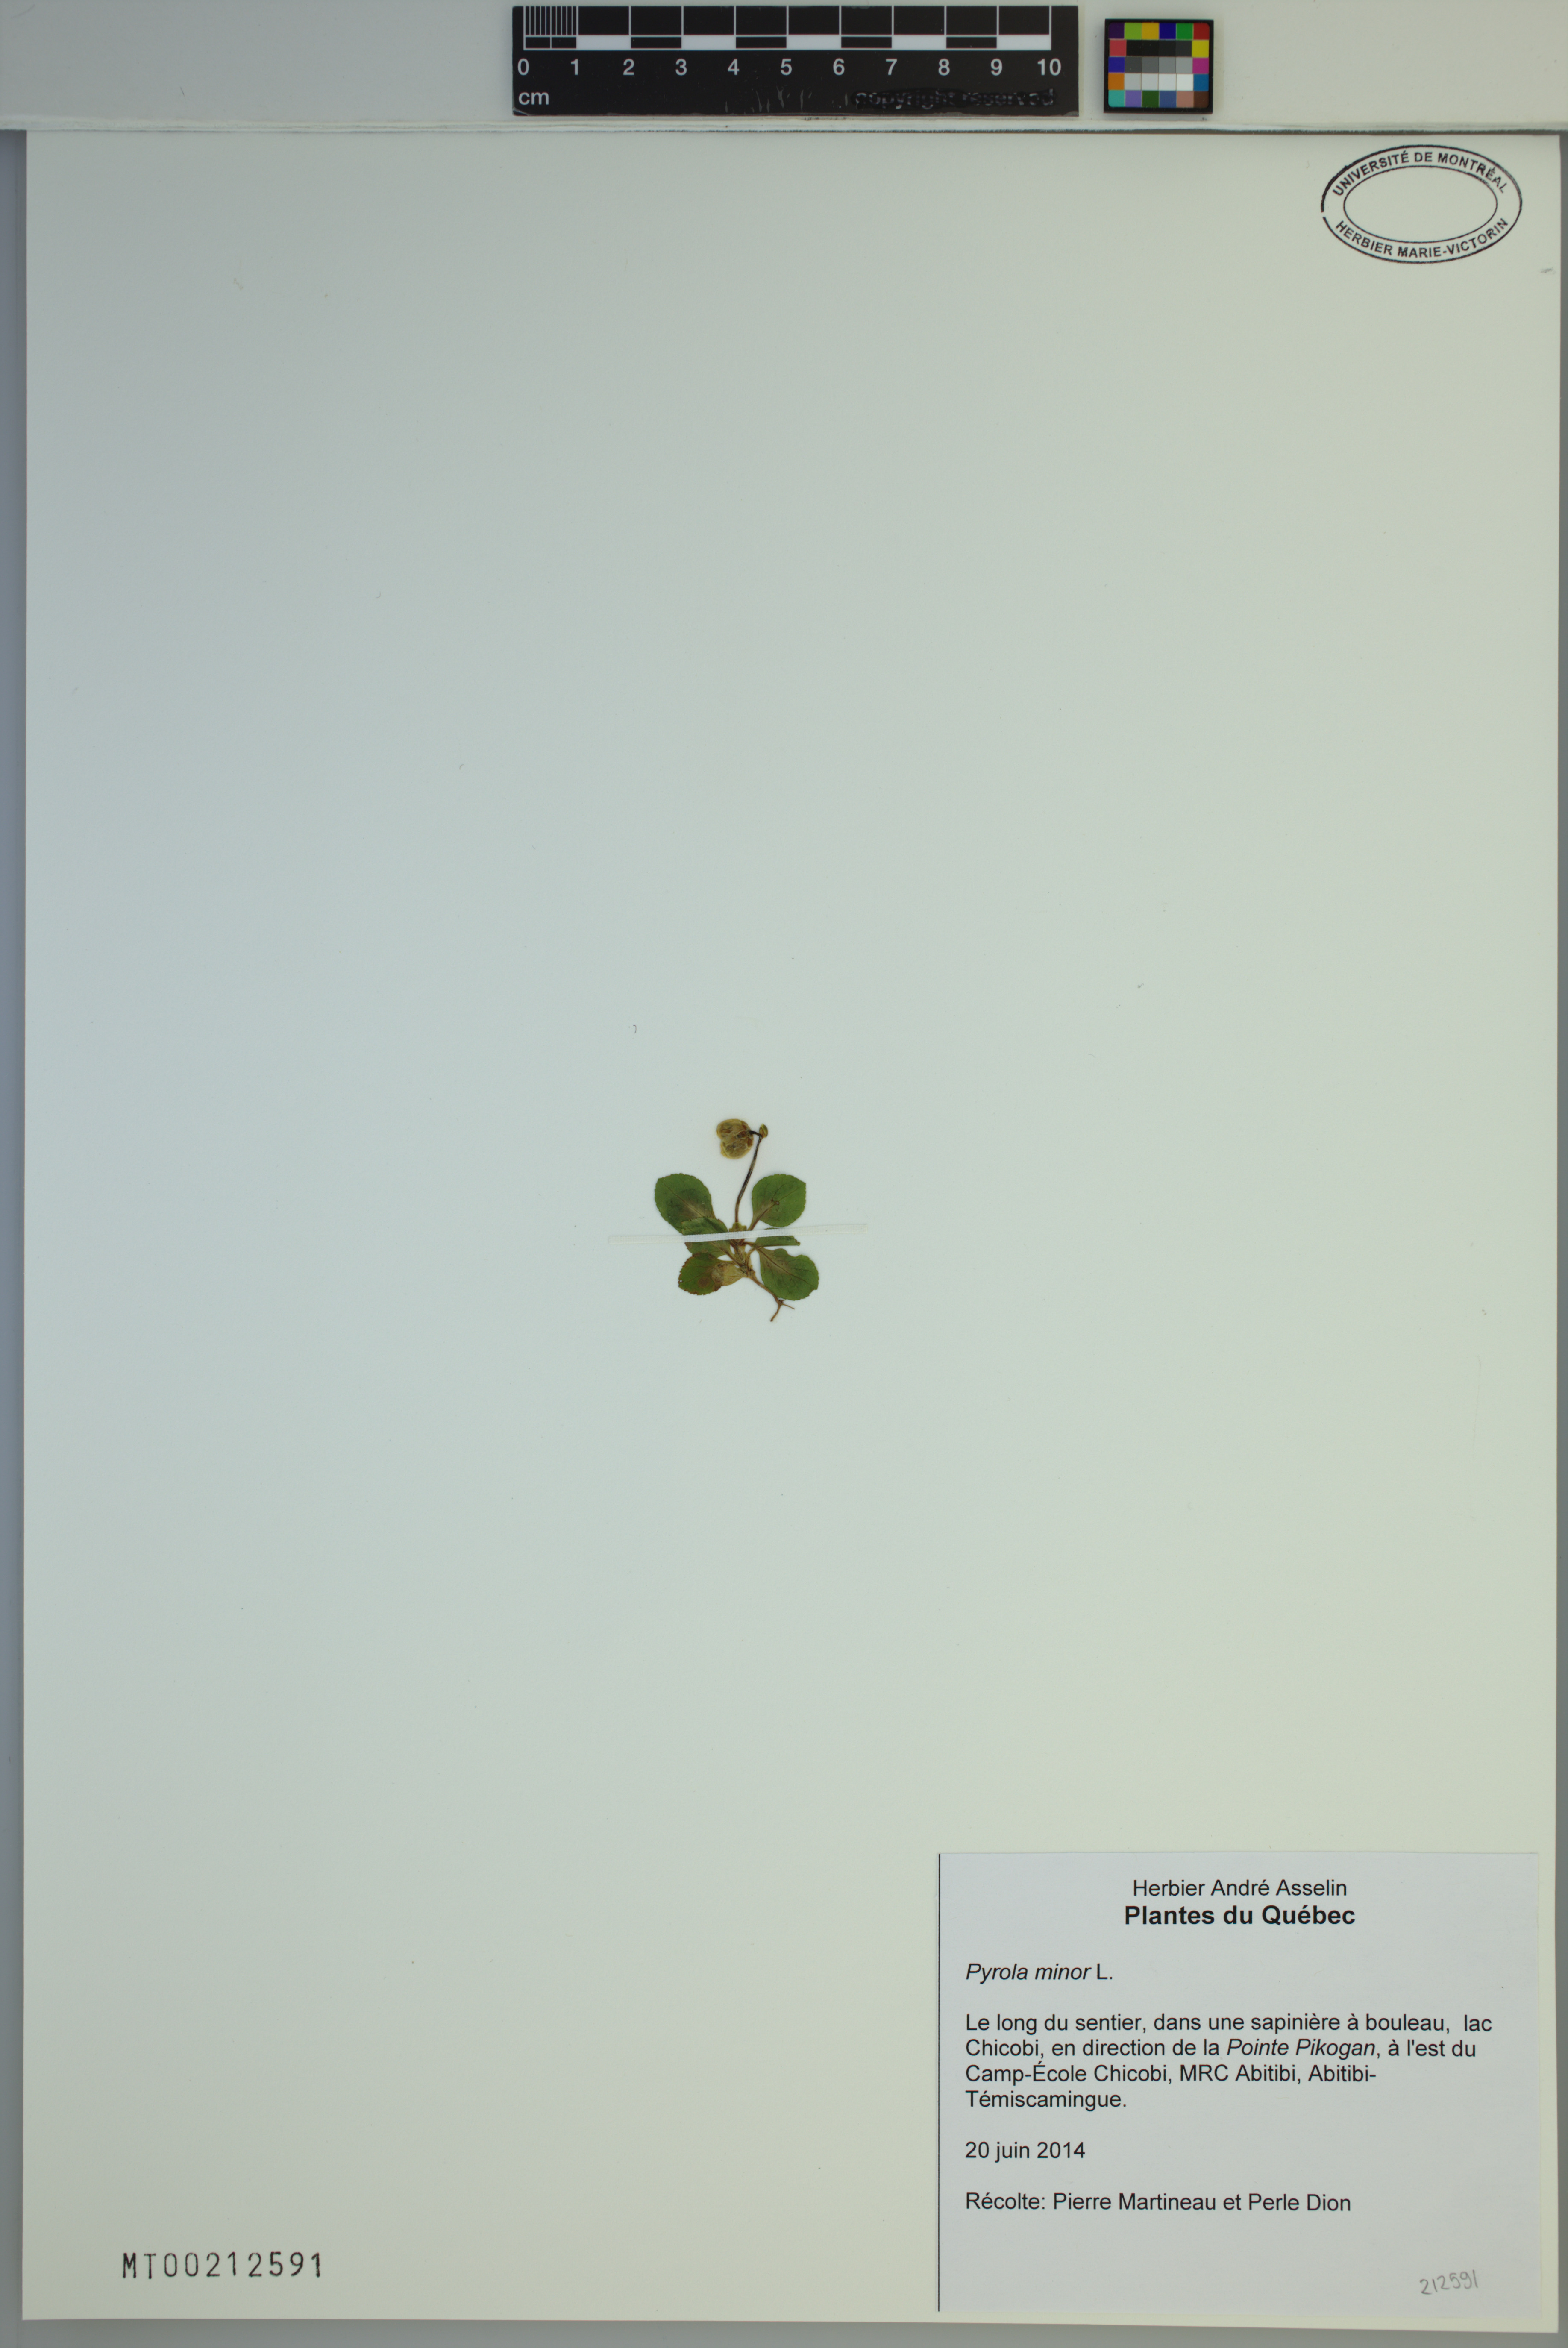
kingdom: Plantae
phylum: Tracheophyta
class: Magnoliopsida
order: Ericales
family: Ericaceae
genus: Pyrola
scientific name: Pyrola minor
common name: Common wintergreen
